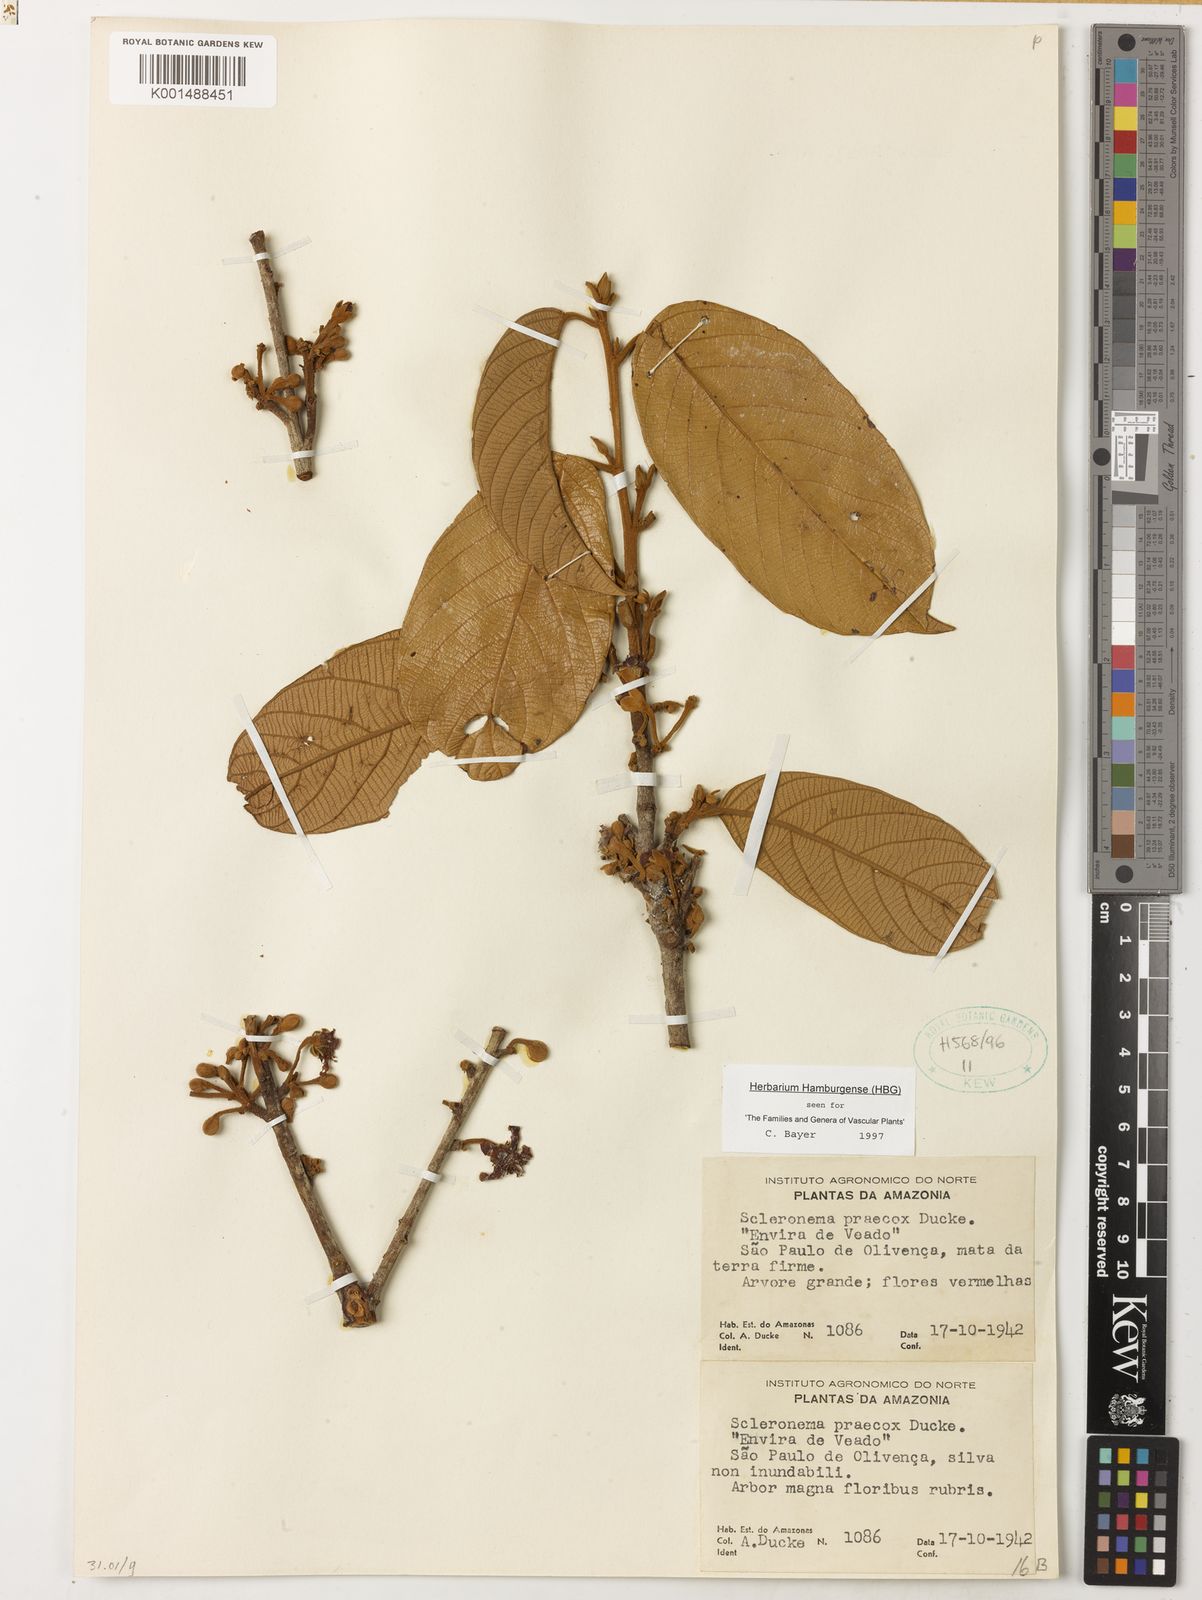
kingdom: Plantae
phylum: Tracheophyta
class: Magnoliopsida
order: Malvales
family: Malvaceae
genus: Scleronema
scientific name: Scleronema praecox
